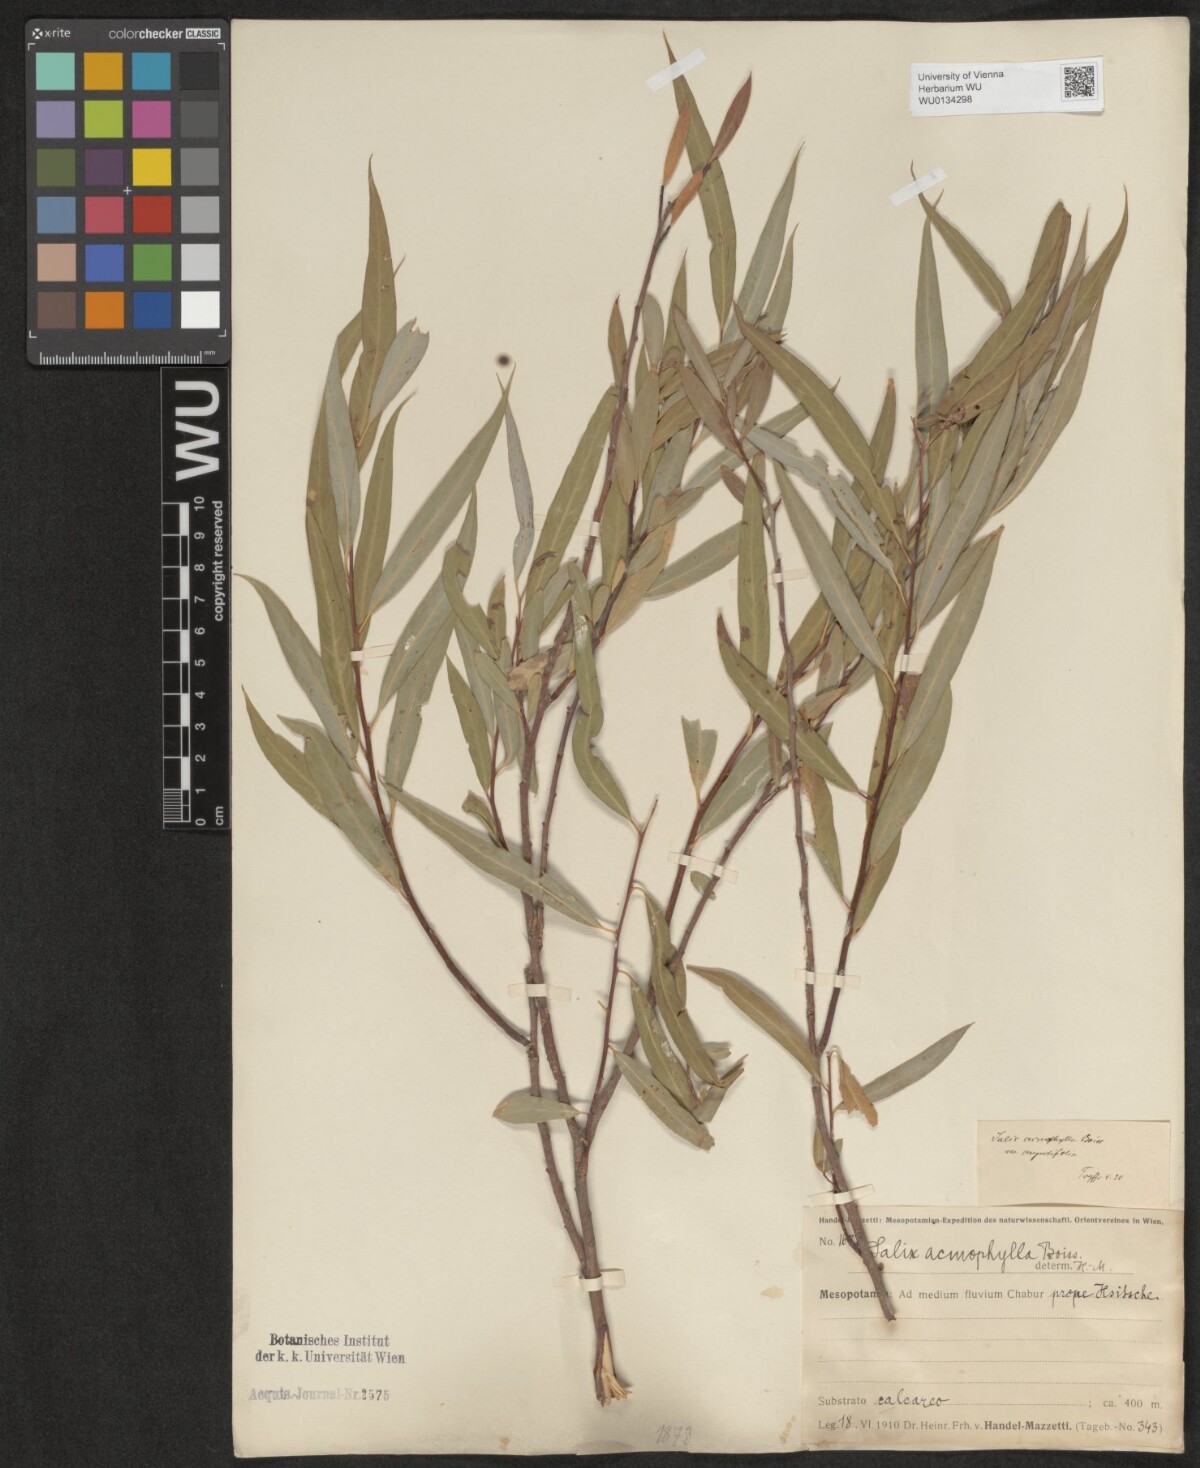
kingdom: Plantae
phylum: Tracheophyta
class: Magnoliopsida
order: Malpighiales
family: Salicaceae
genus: Salix
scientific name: Salix acmophylla
